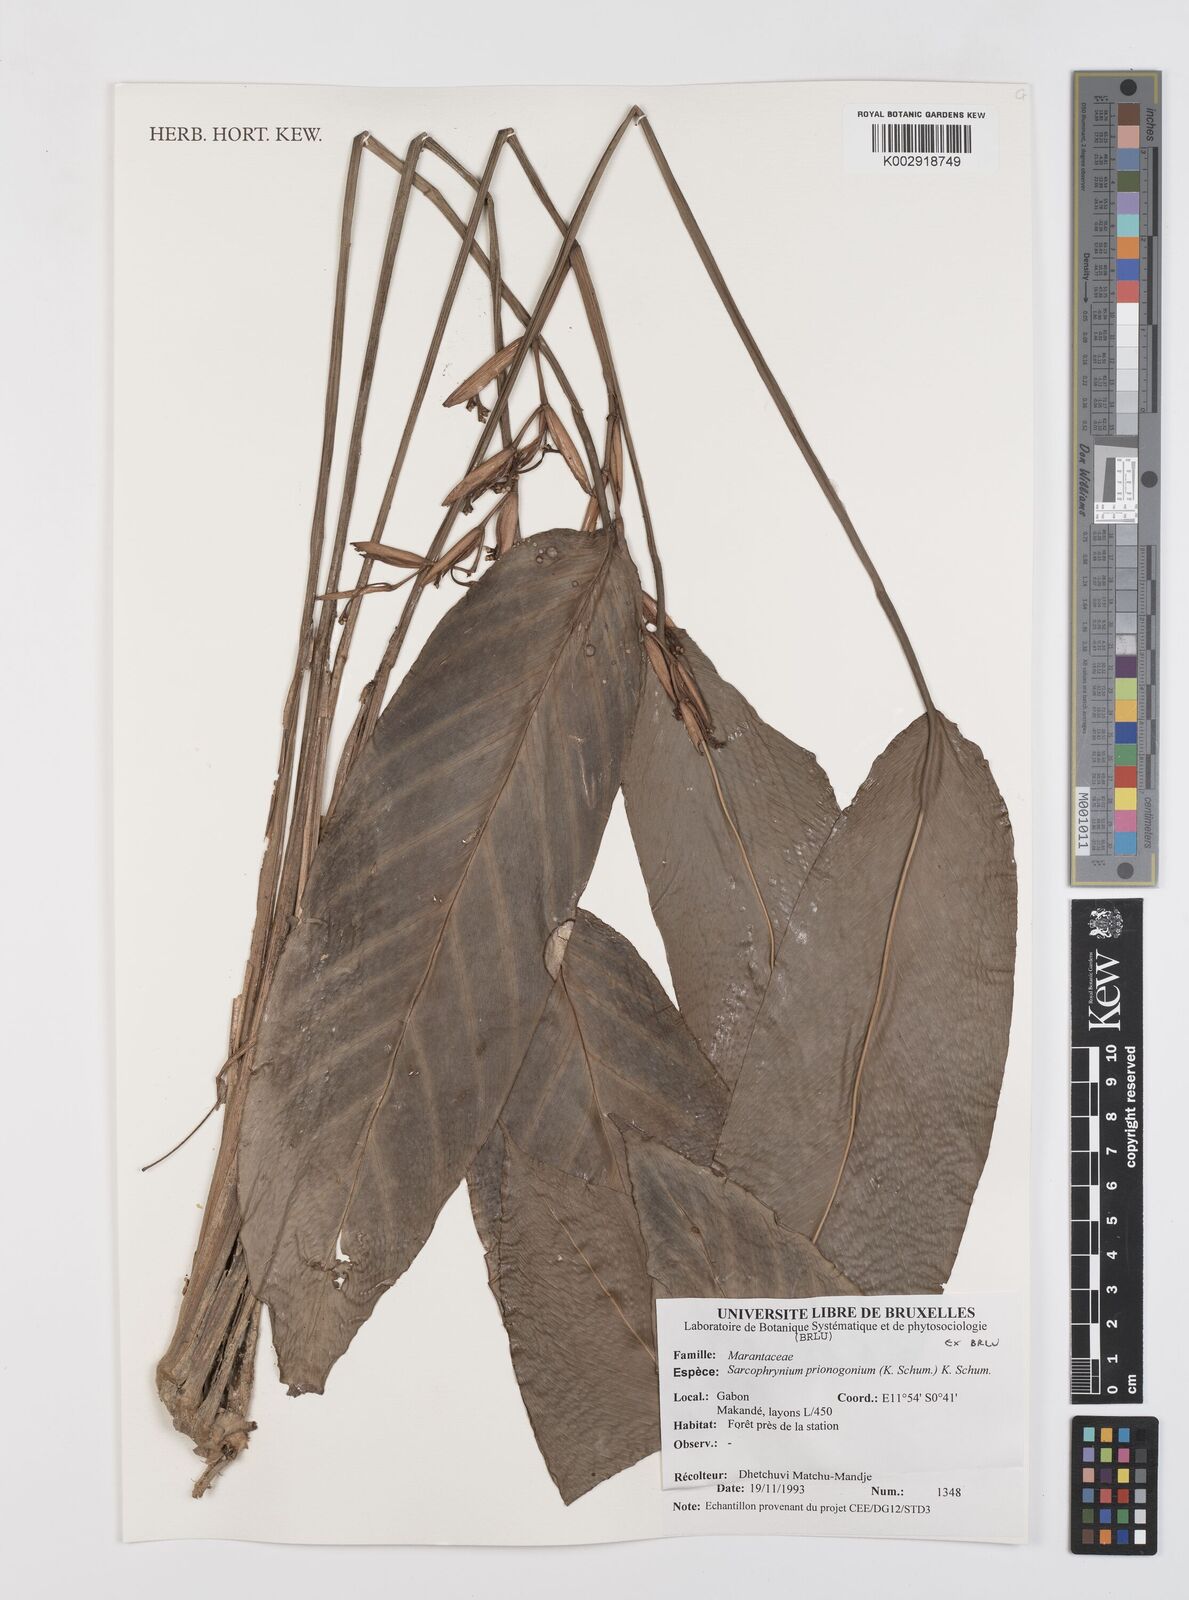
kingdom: Plantae
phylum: Tracheophyta
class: Liliopsida
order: Zingiberales
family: Marantaceae
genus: Sarcophrynium
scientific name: Sarcophrynium prionogonium
